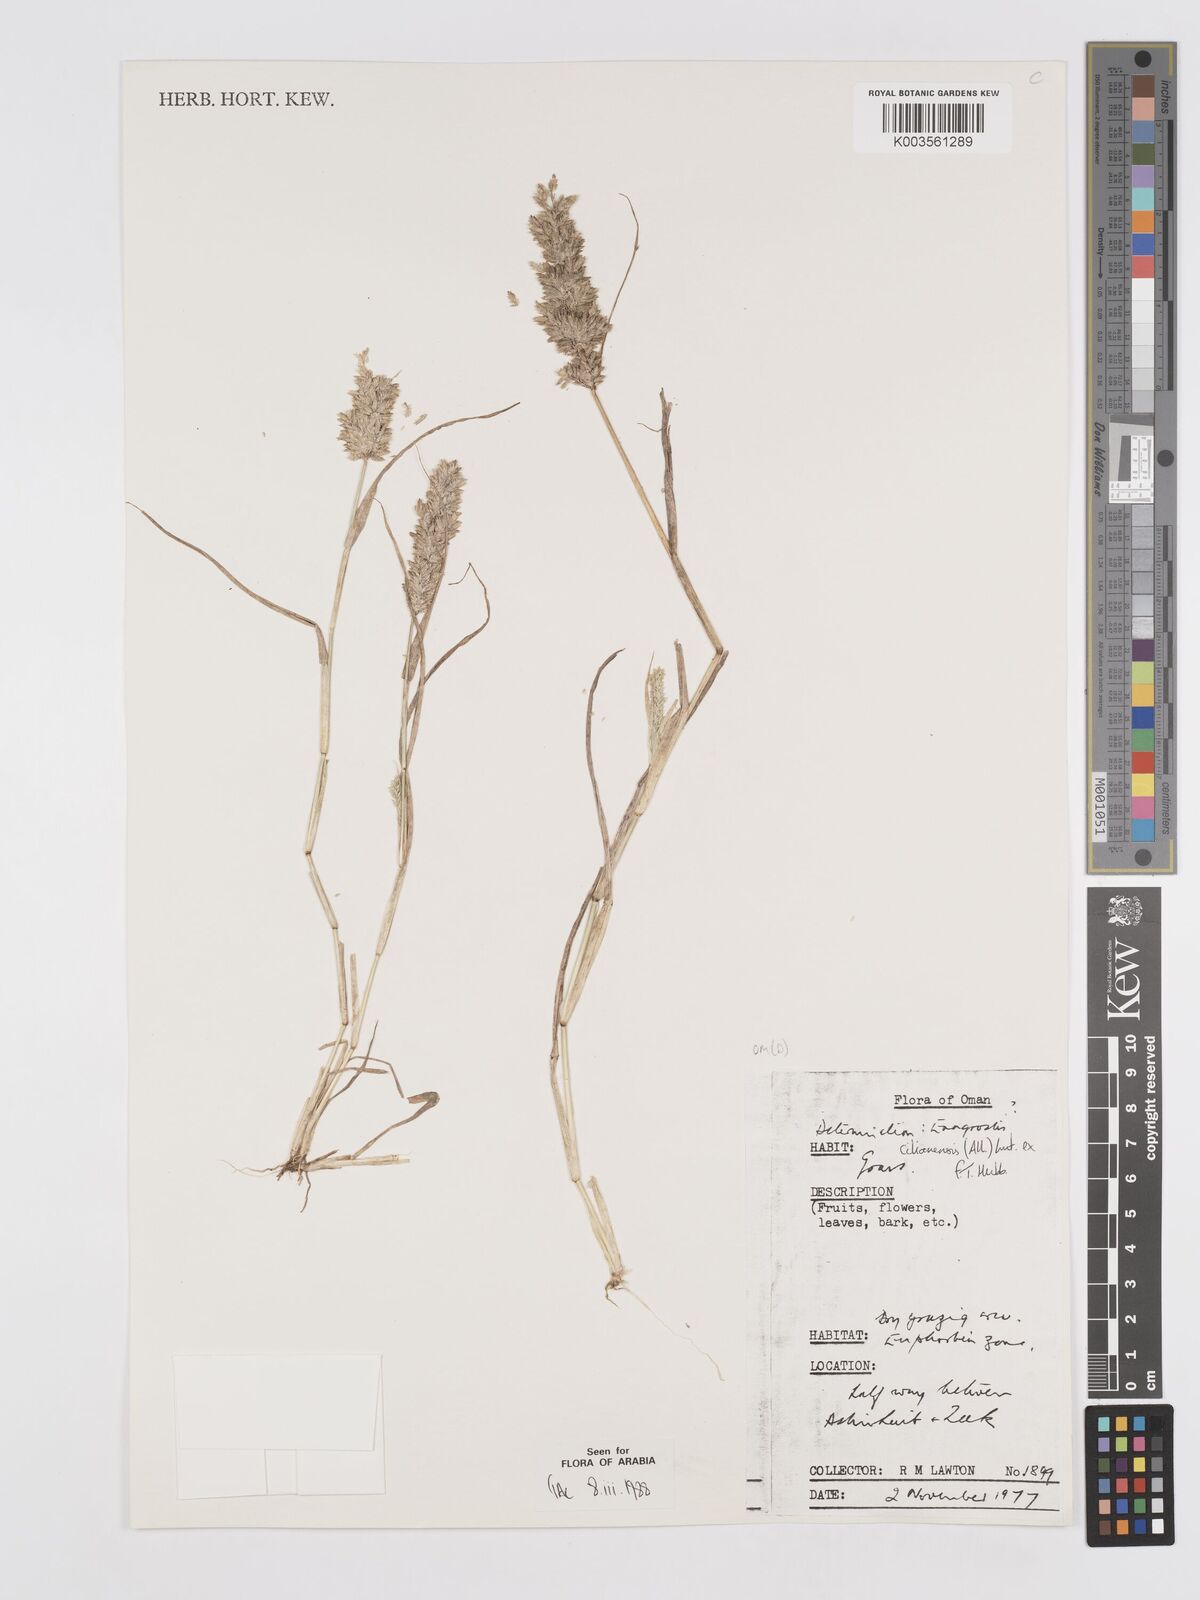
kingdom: Plantae
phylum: Tracheophyta
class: Liliopsida
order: Poales
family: Poaceae
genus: Eragrostis
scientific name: Eragrostis cilianensis
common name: Stinkgrass
